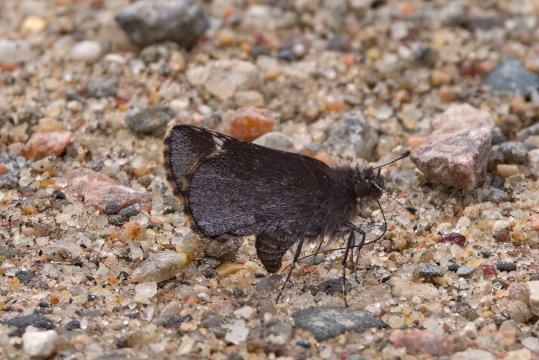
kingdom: Animalia
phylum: Arthropoda
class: Insecta
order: Lepidoptera
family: Hesperiidae
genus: Mastor
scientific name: Mastor vialis
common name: Common Roadside-Skipper
